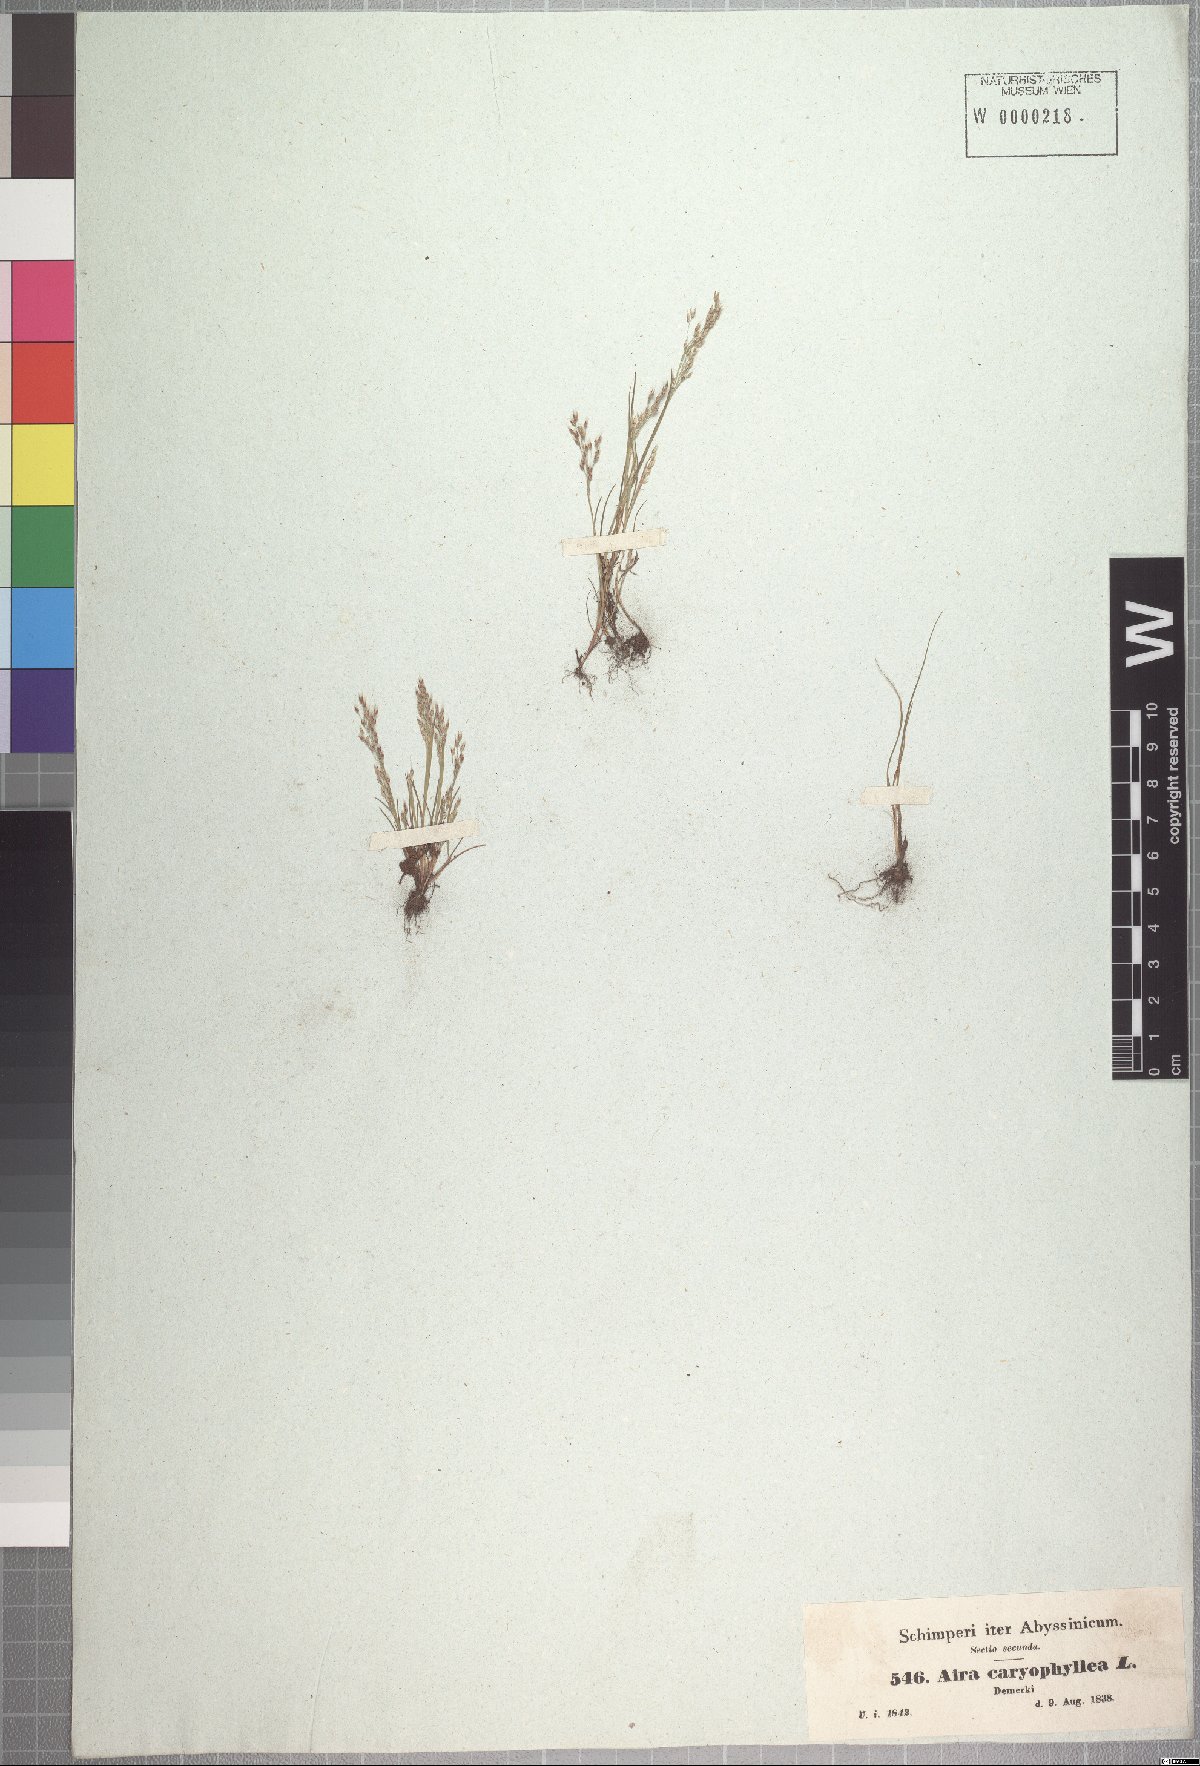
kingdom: Plantae
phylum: Tracheophyta
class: Liliopsida
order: Poales
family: Poaceae
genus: Aira
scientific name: Aira caryophyllea
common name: Silver hairgrass
